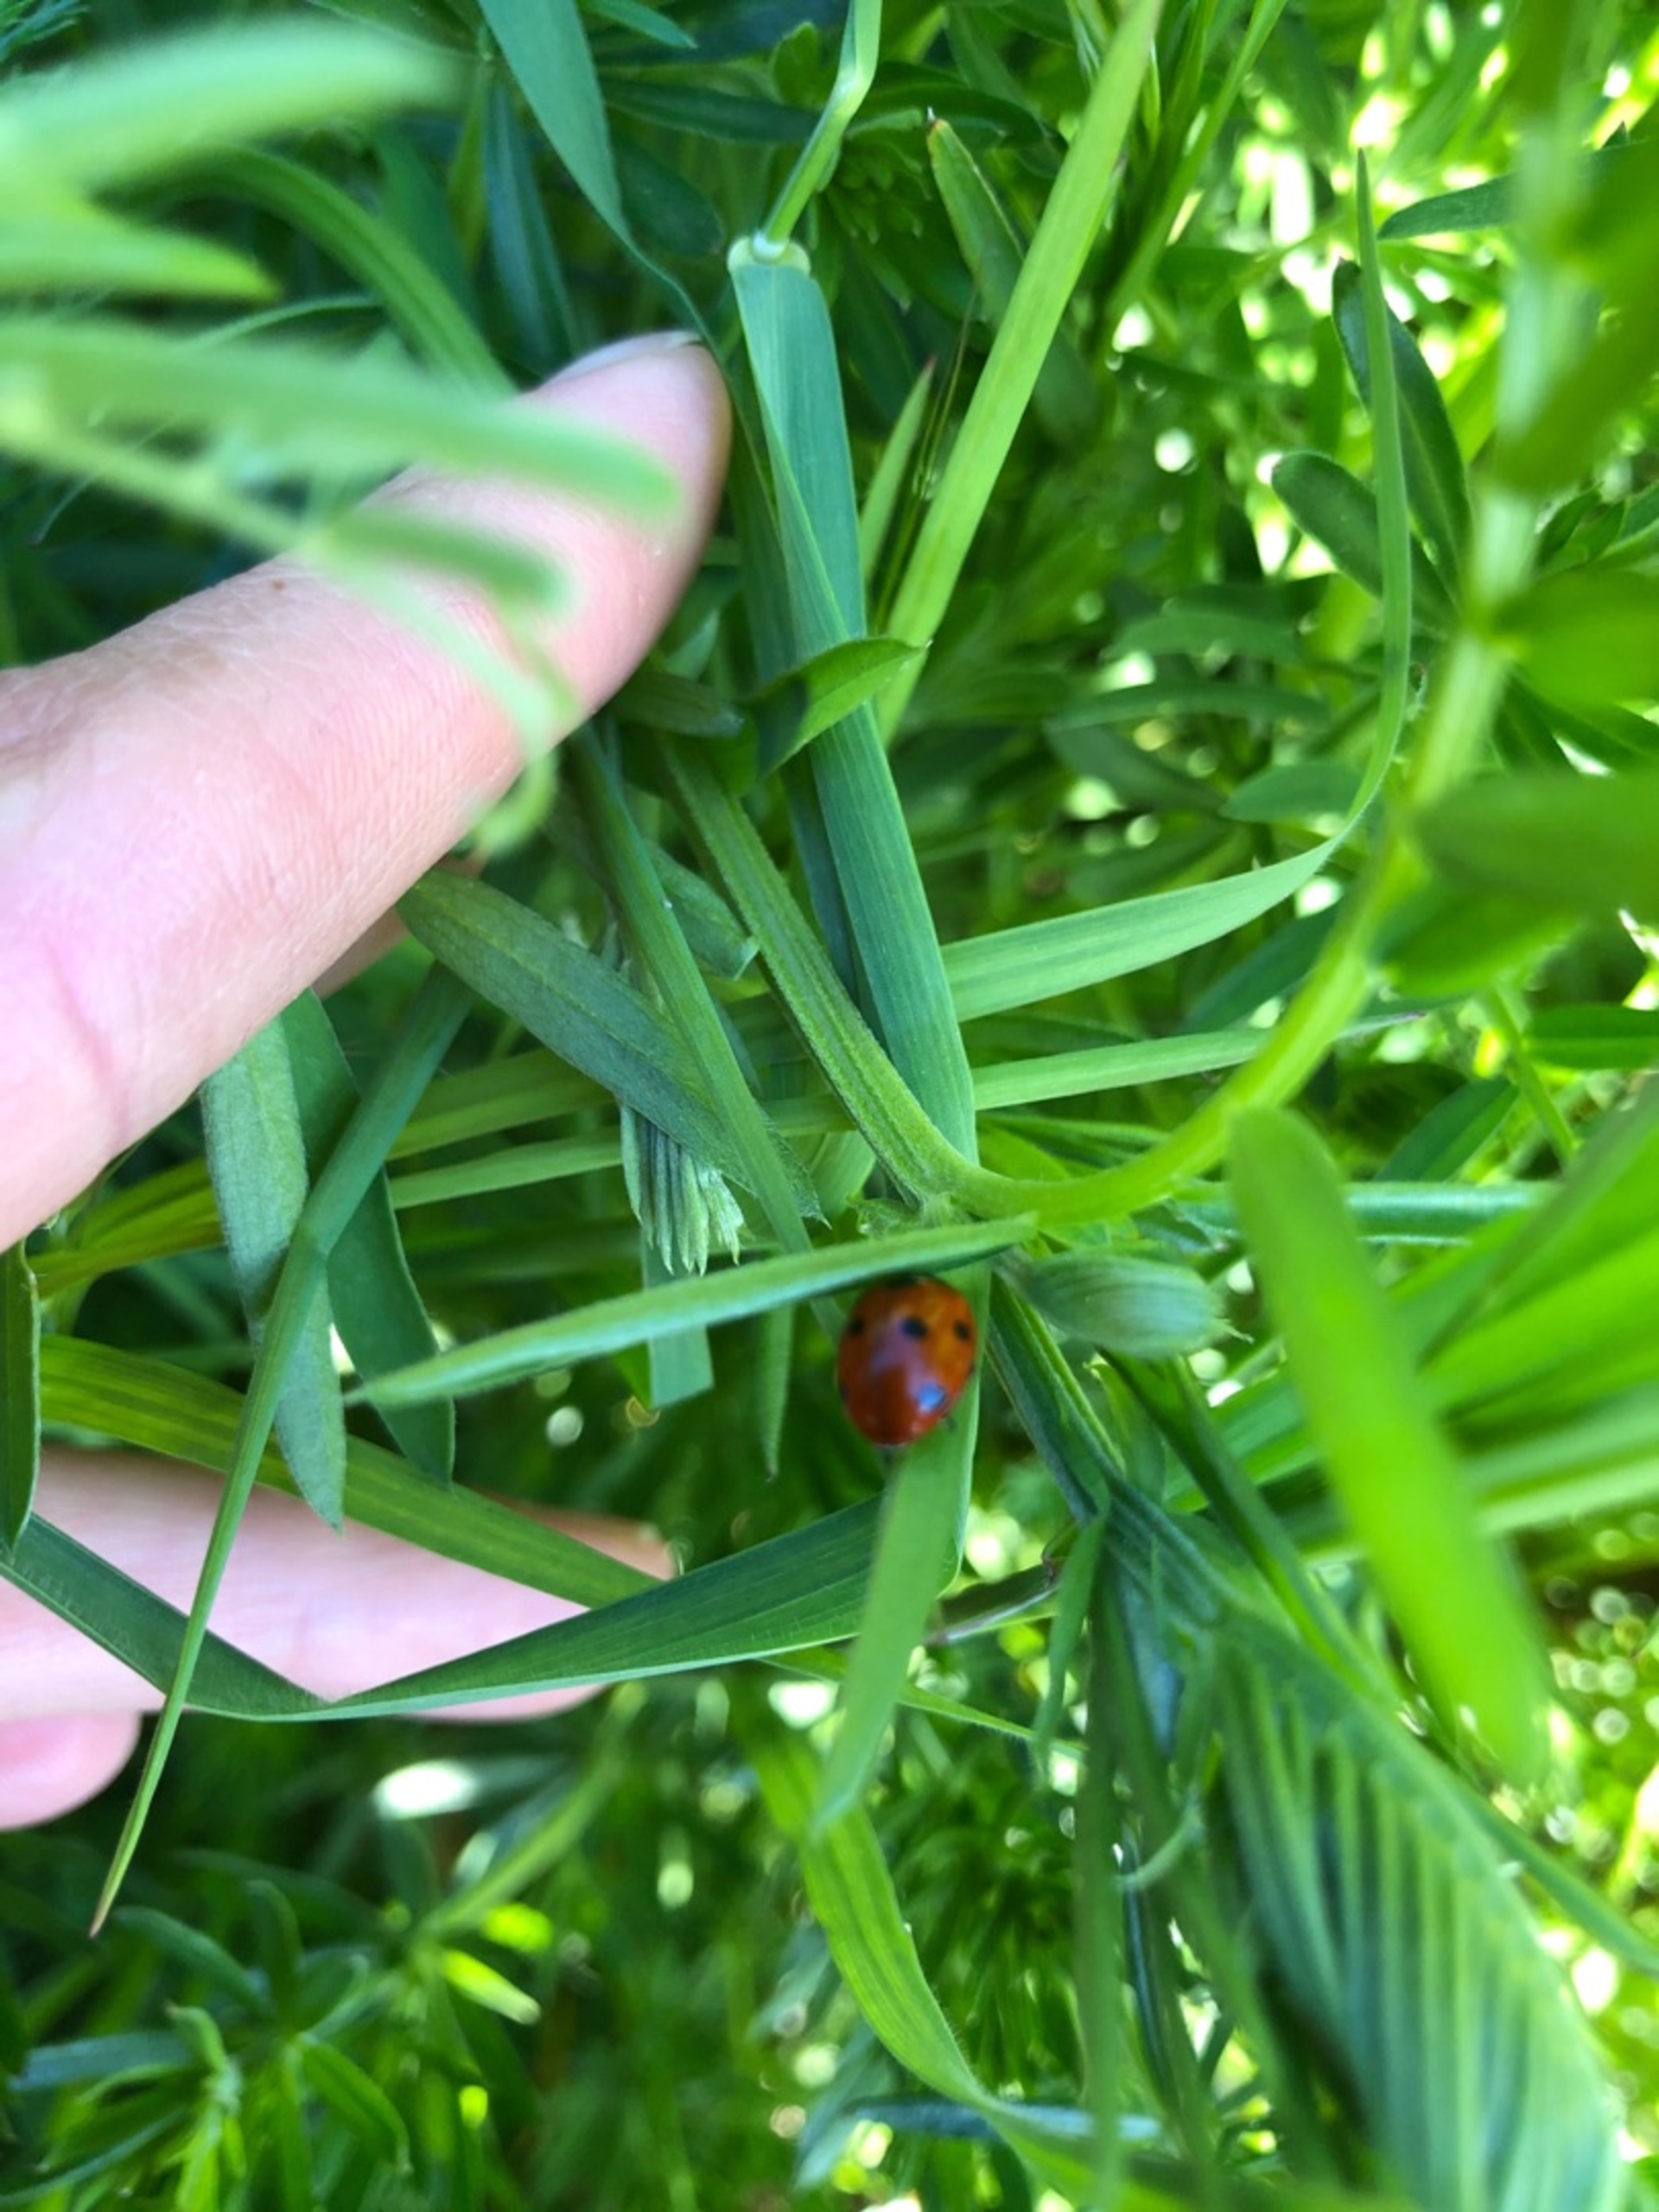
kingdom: Animalia
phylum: Arthropoda
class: Insecta
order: Coleoptera
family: Coccinellidae
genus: Coccinella
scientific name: Coccinella septempunctata
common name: Syvplettet mariehøne
